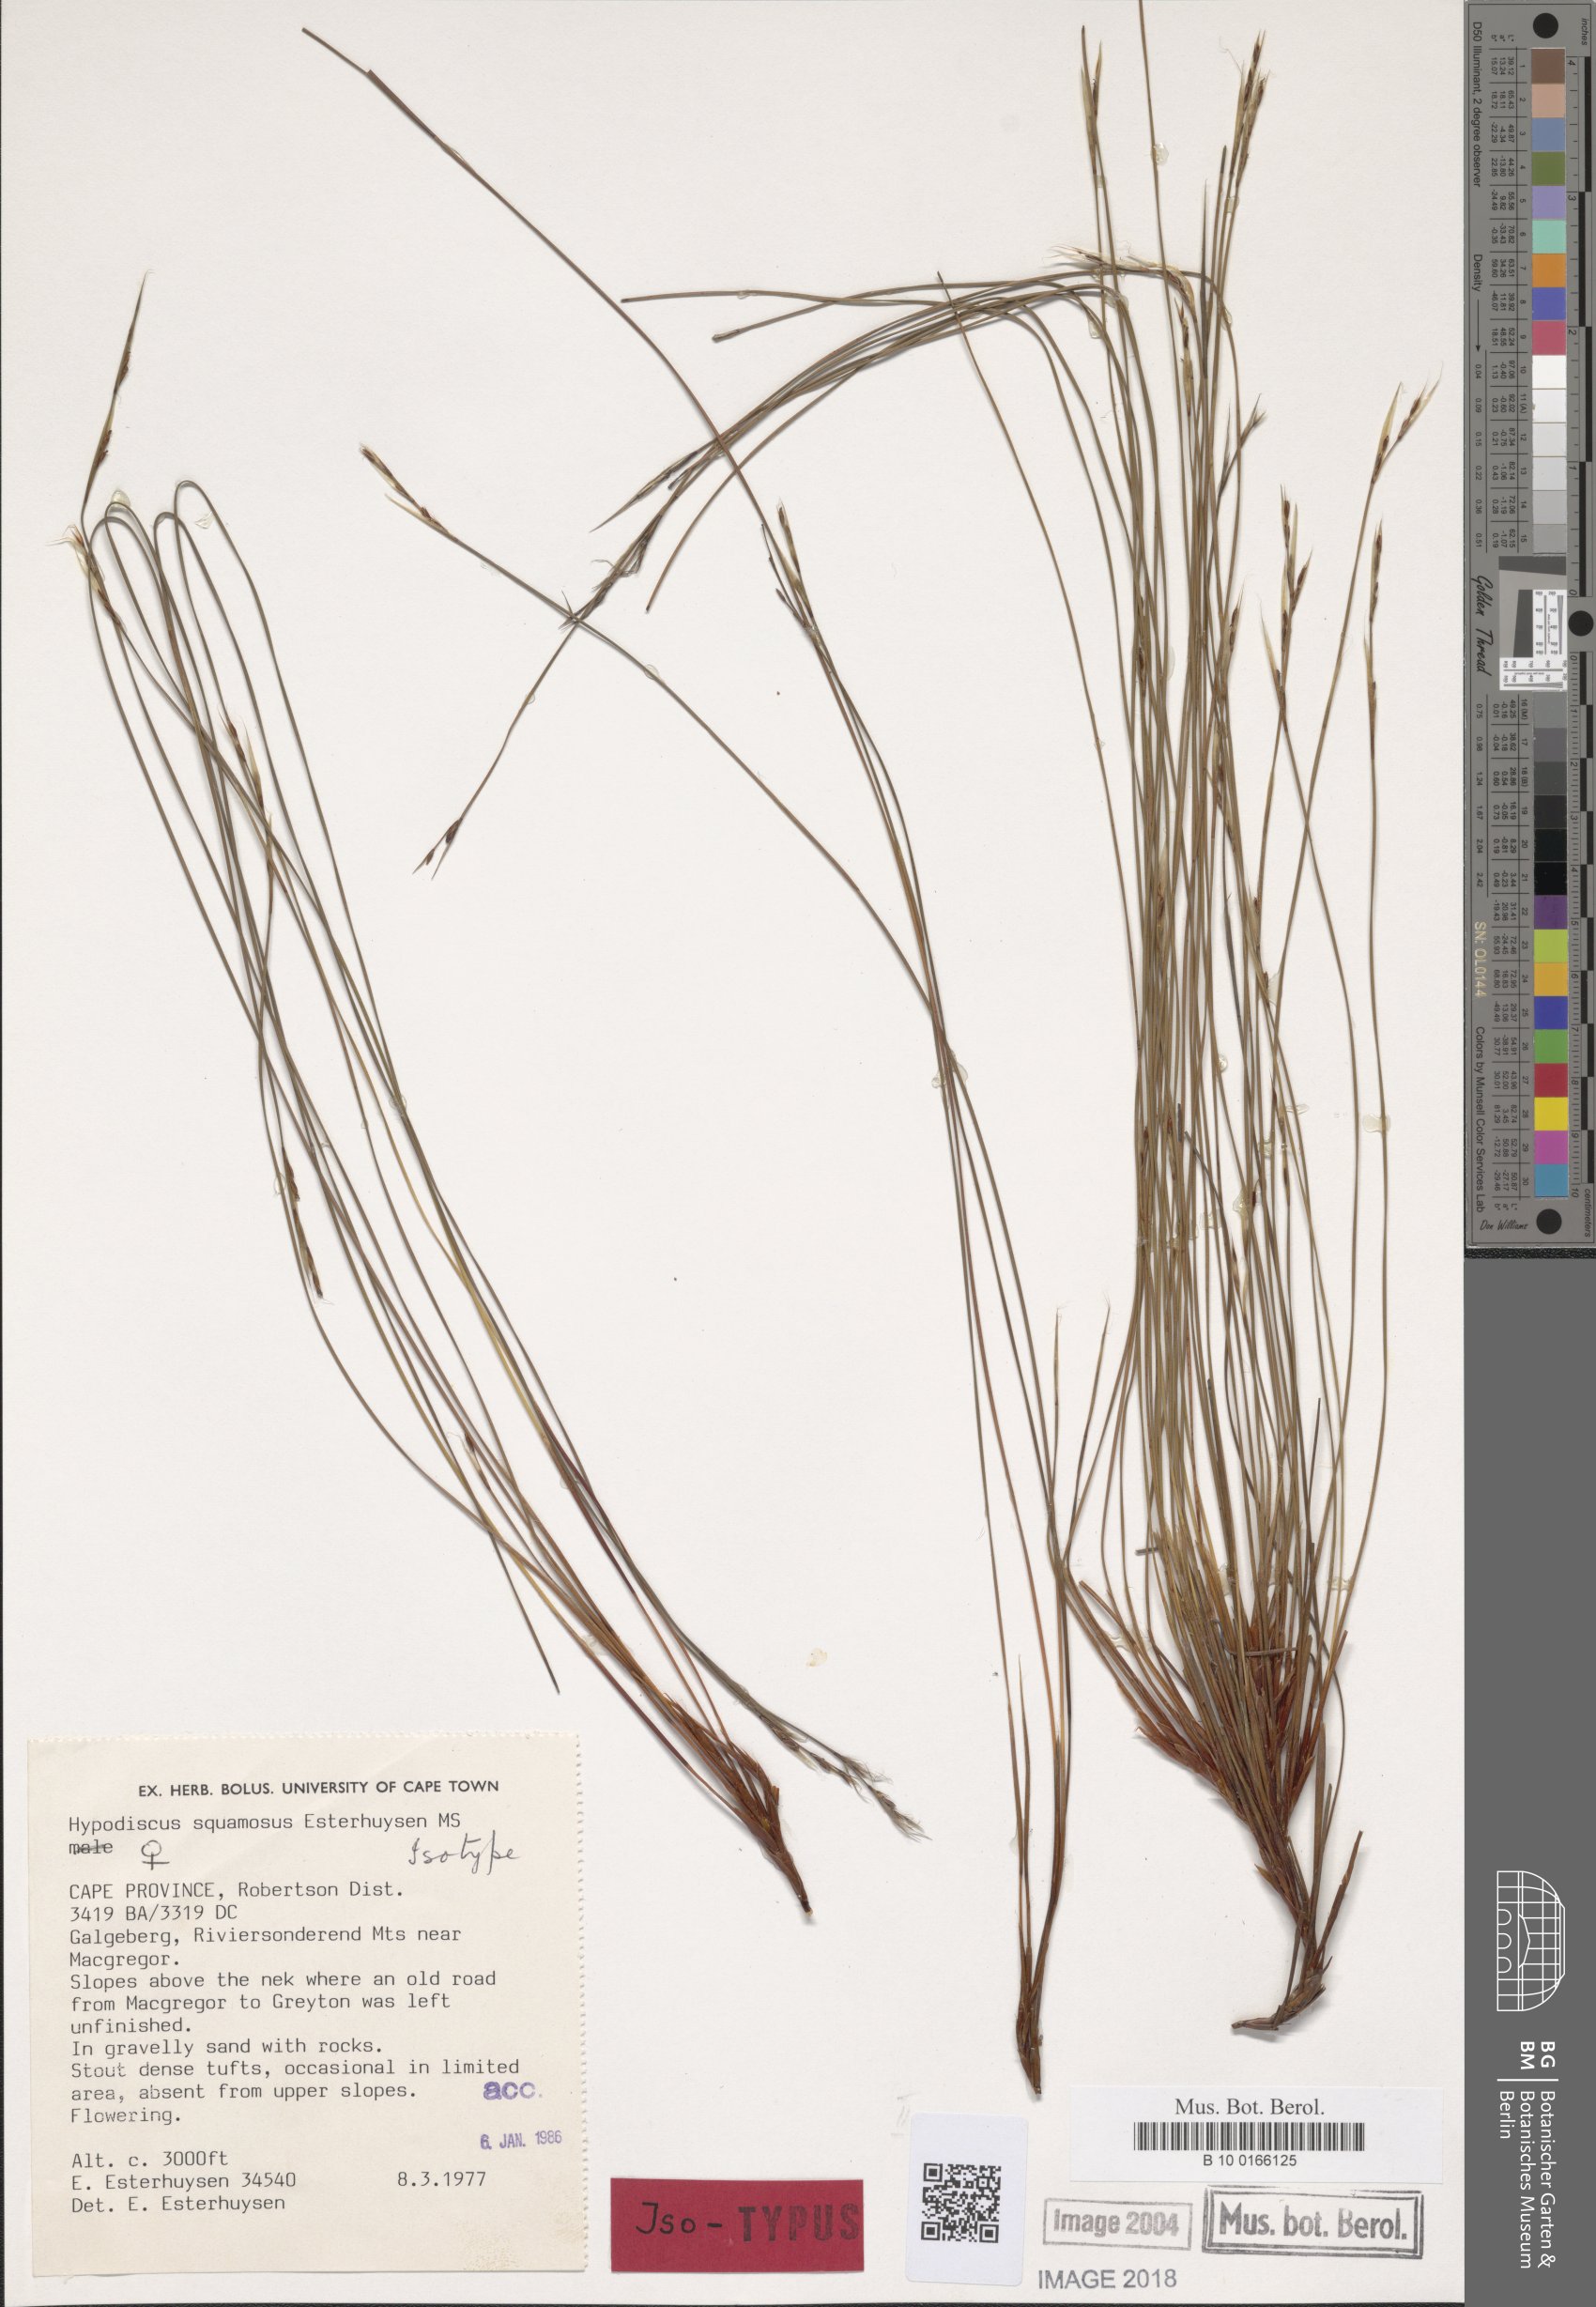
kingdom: Plantae
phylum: Tracheophyta
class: Liliopsida
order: Poales
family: Restionaceae
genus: Hypodiscus
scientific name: Hypodiscus squamosus
